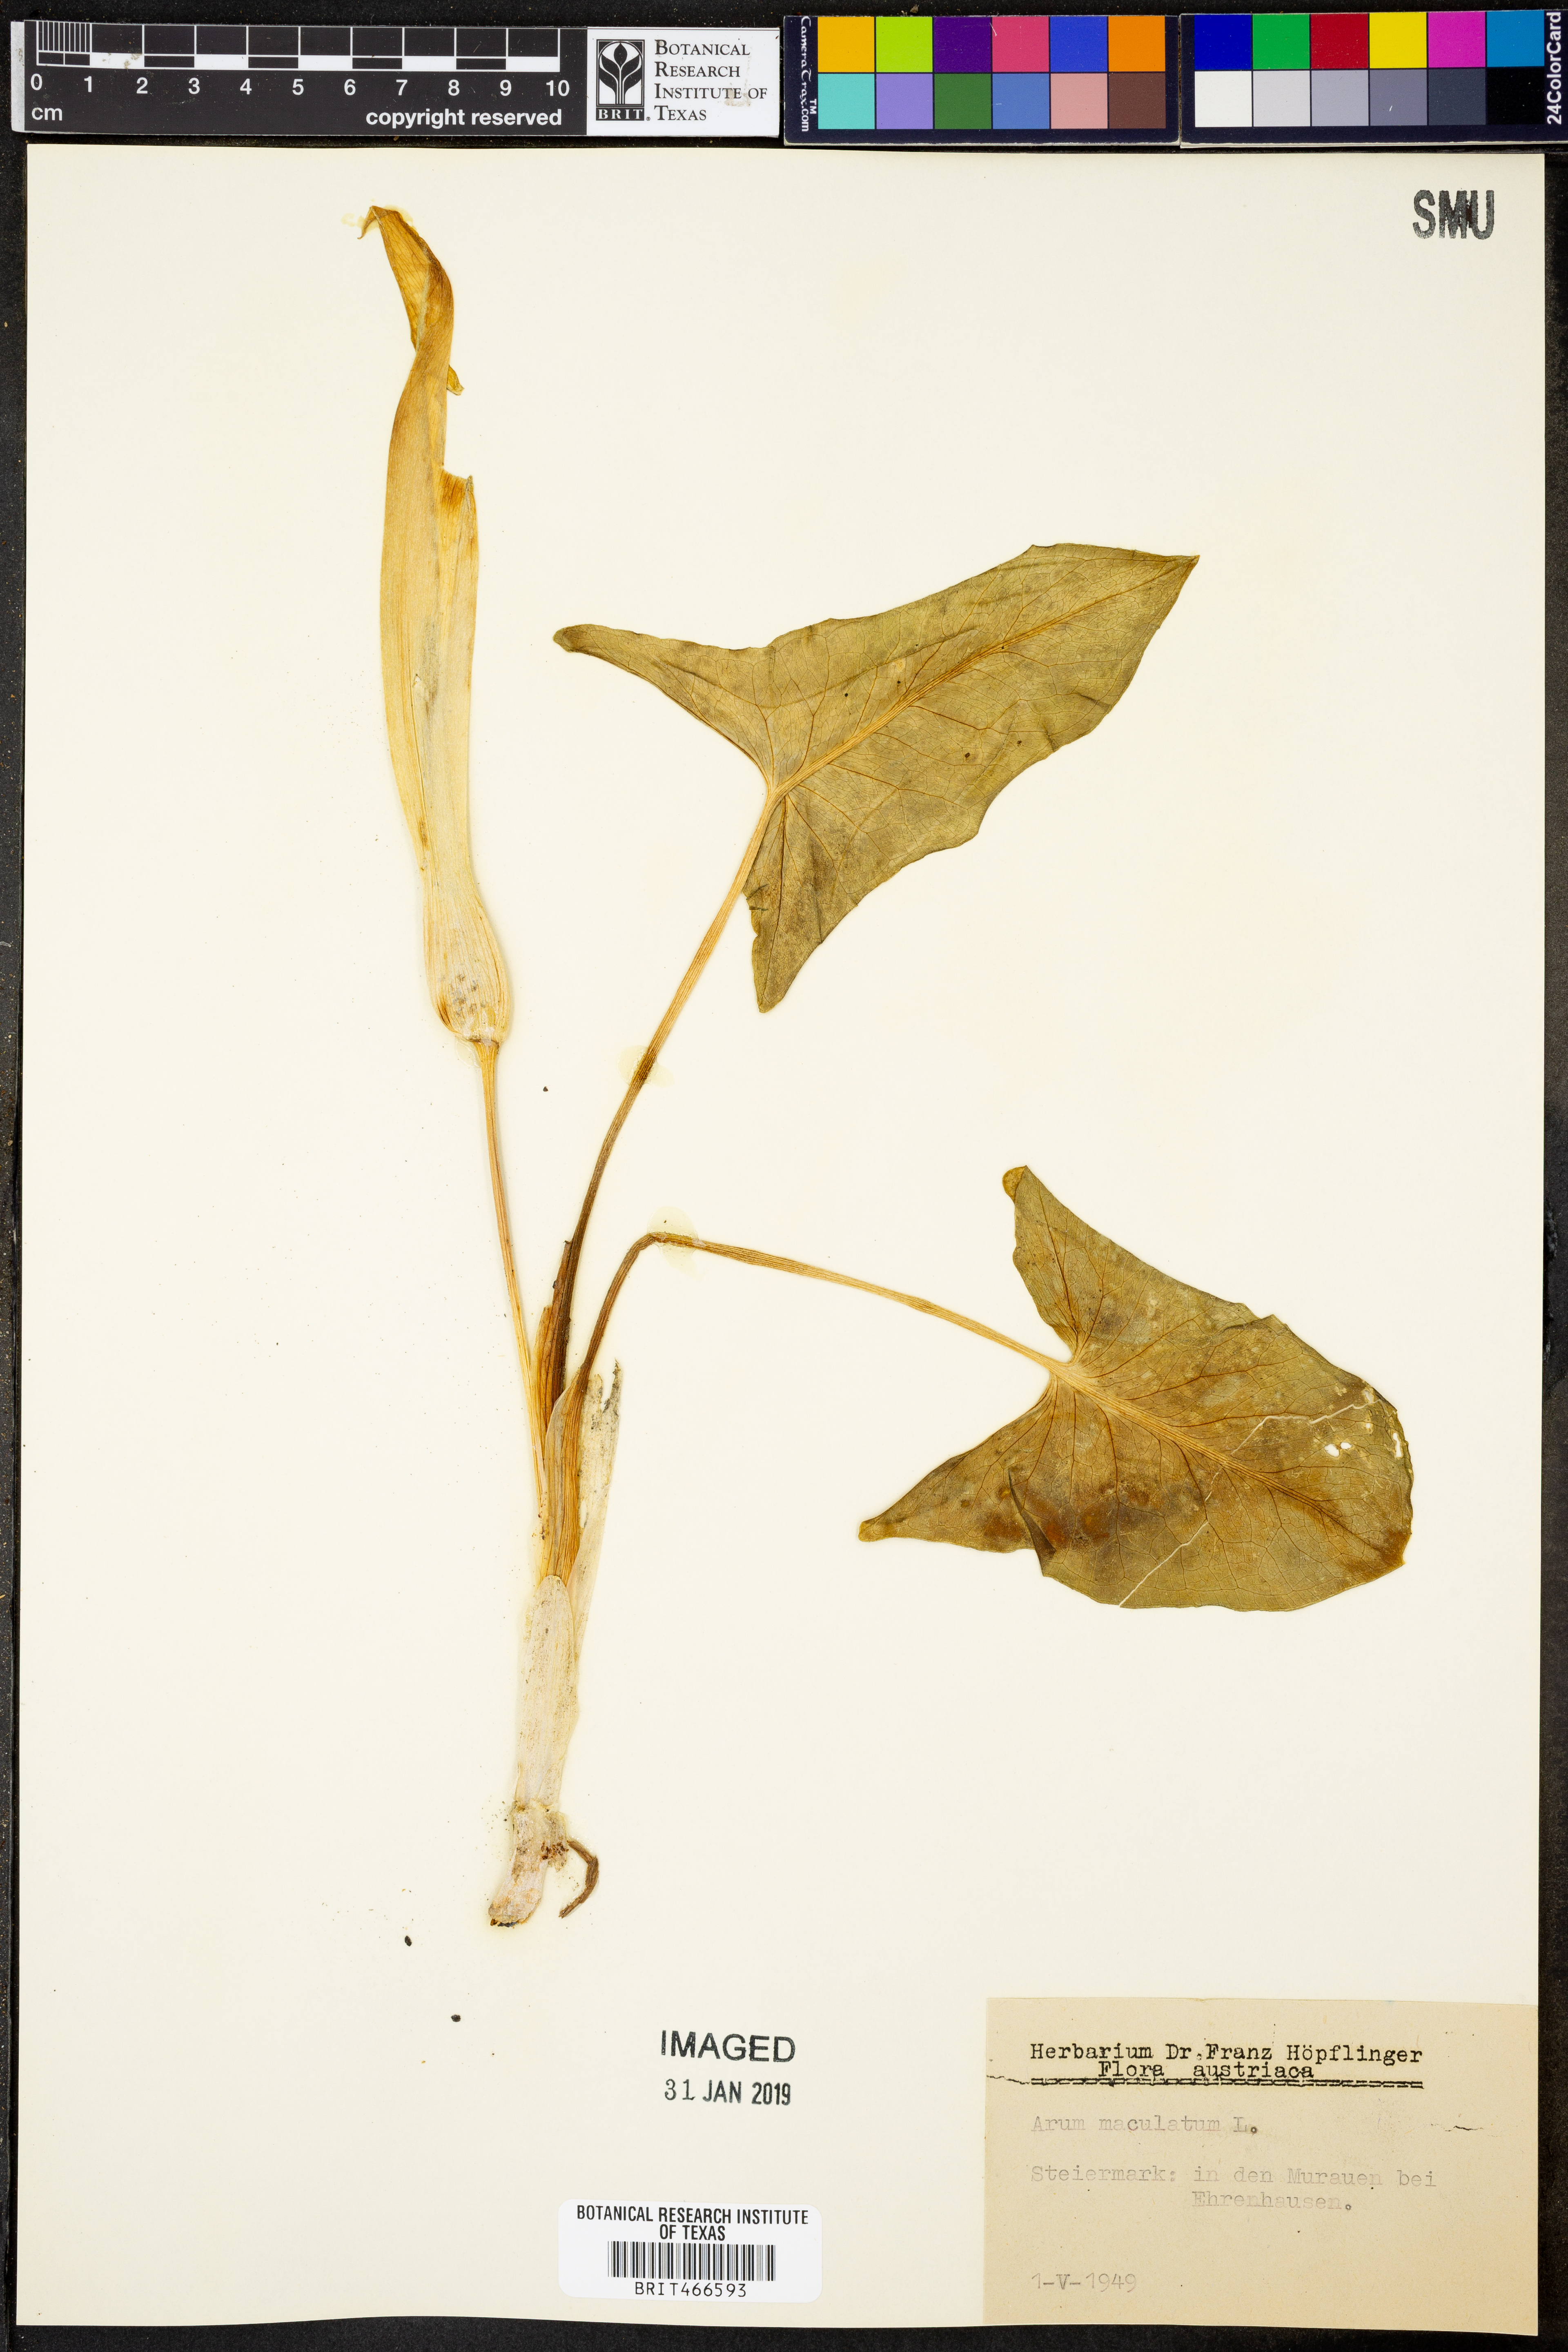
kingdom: Plantae
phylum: Tracheophyta
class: Liliopsida
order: Alismatales
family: Araceae
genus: Arum
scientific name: Arum maculatum
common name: Lords-and-ladies
